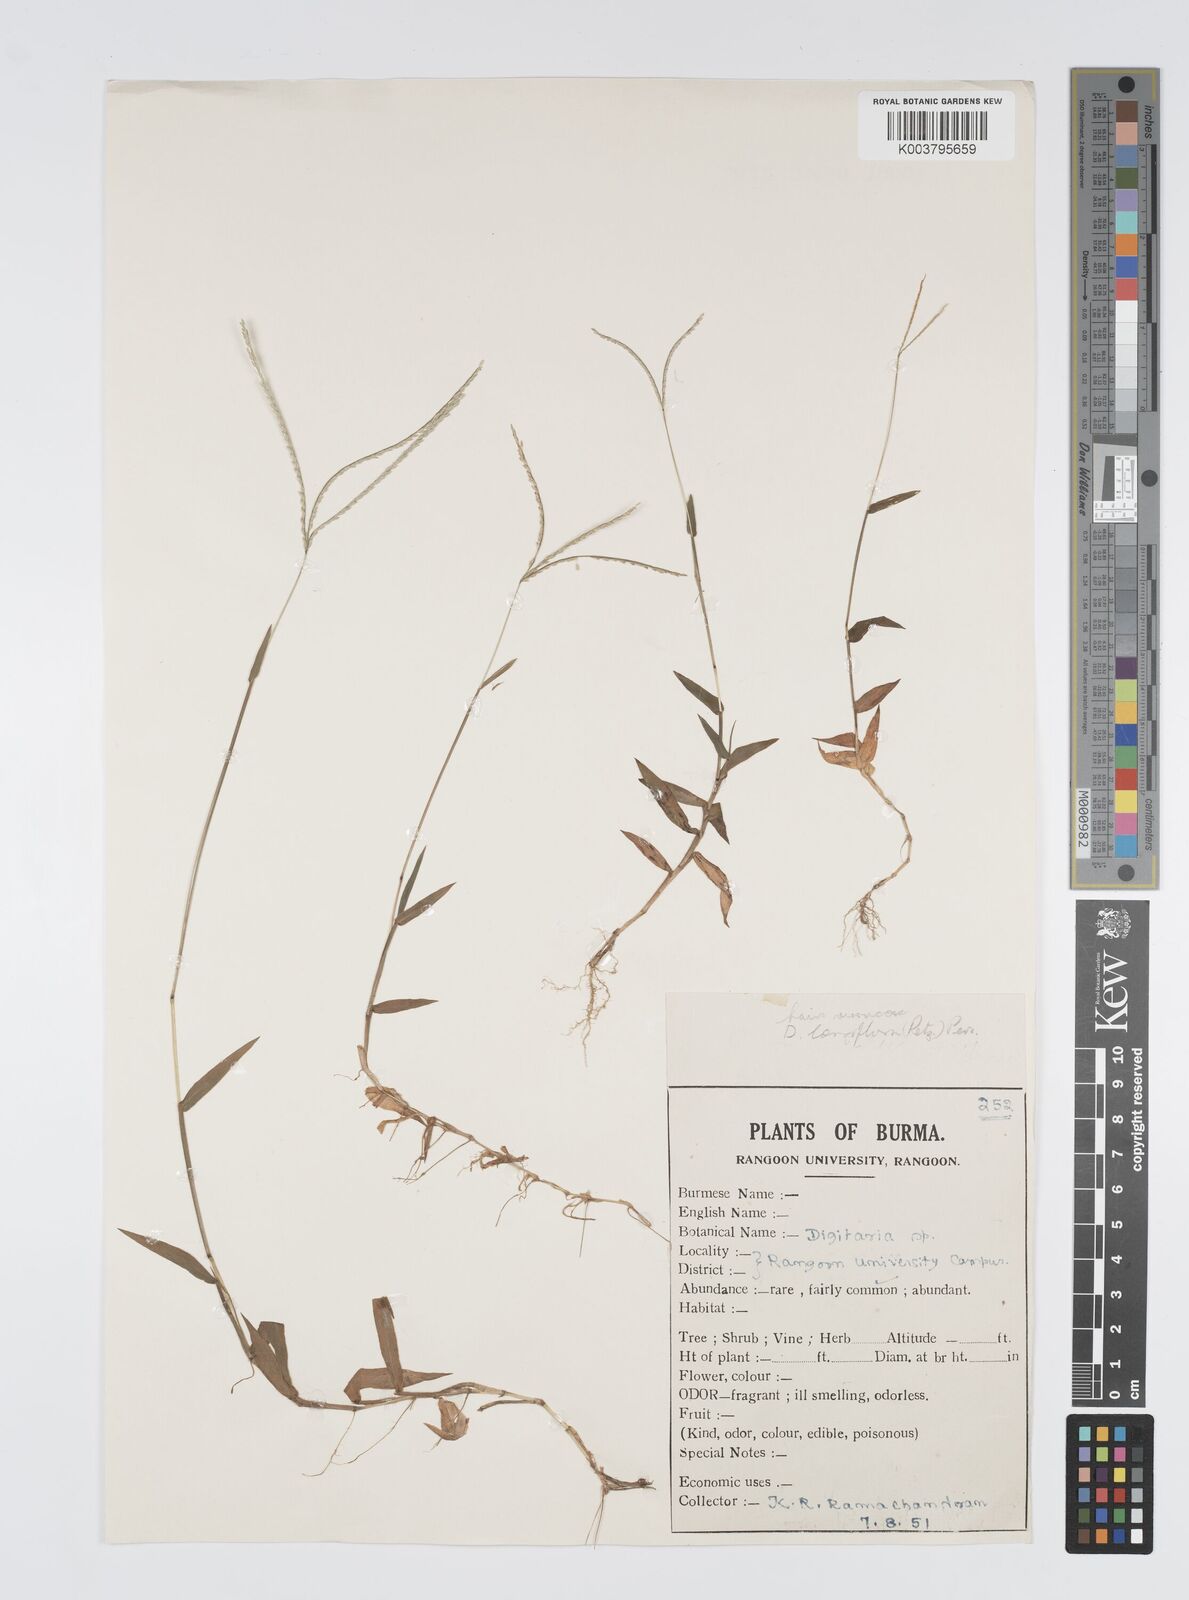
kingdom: Plantae
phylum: Tracheophyta
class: Liliopsida
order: Poales
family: Poaceae
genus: Digitaria
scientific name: Digitaria longiflora
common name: Wire crabgrass
